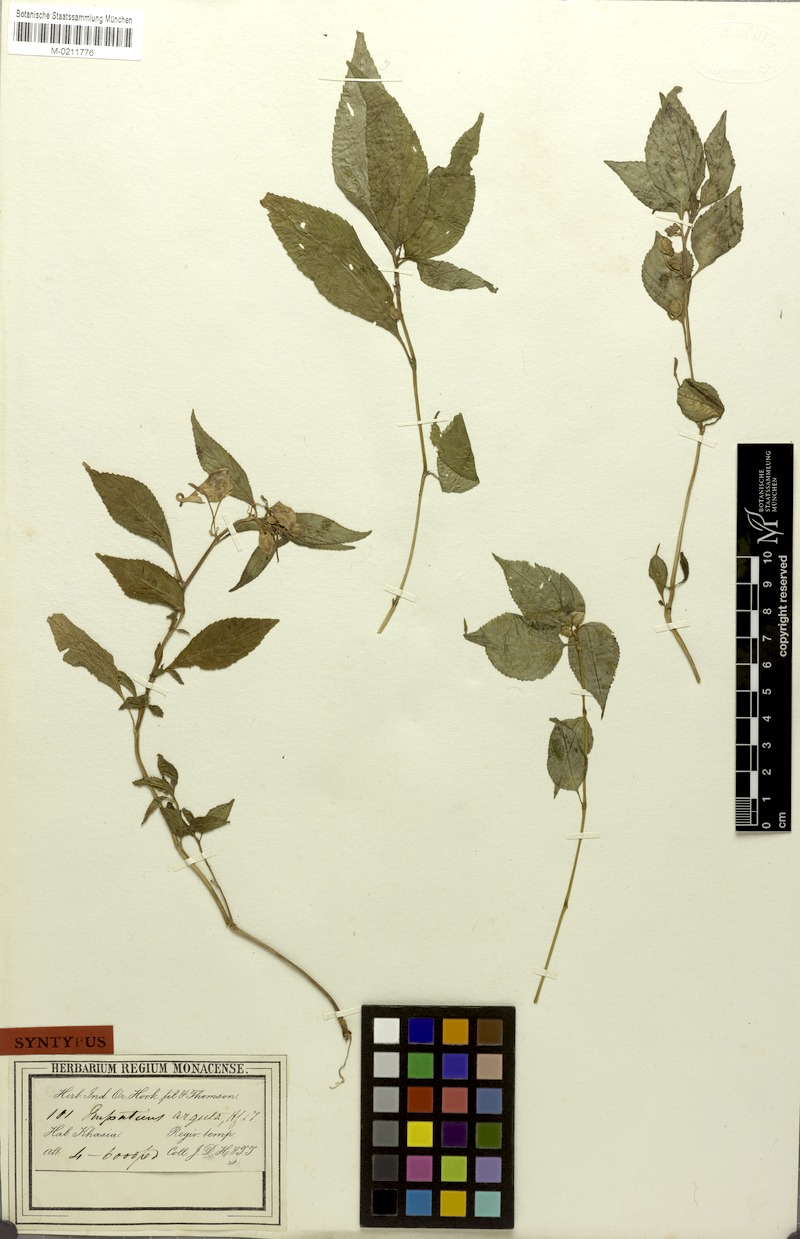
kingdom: Plantae
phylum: Tracheophyta
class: Magnoliopsida
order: Ericales
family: Balsaminaceae
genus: Impatiens
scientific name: Impatiens arguta
